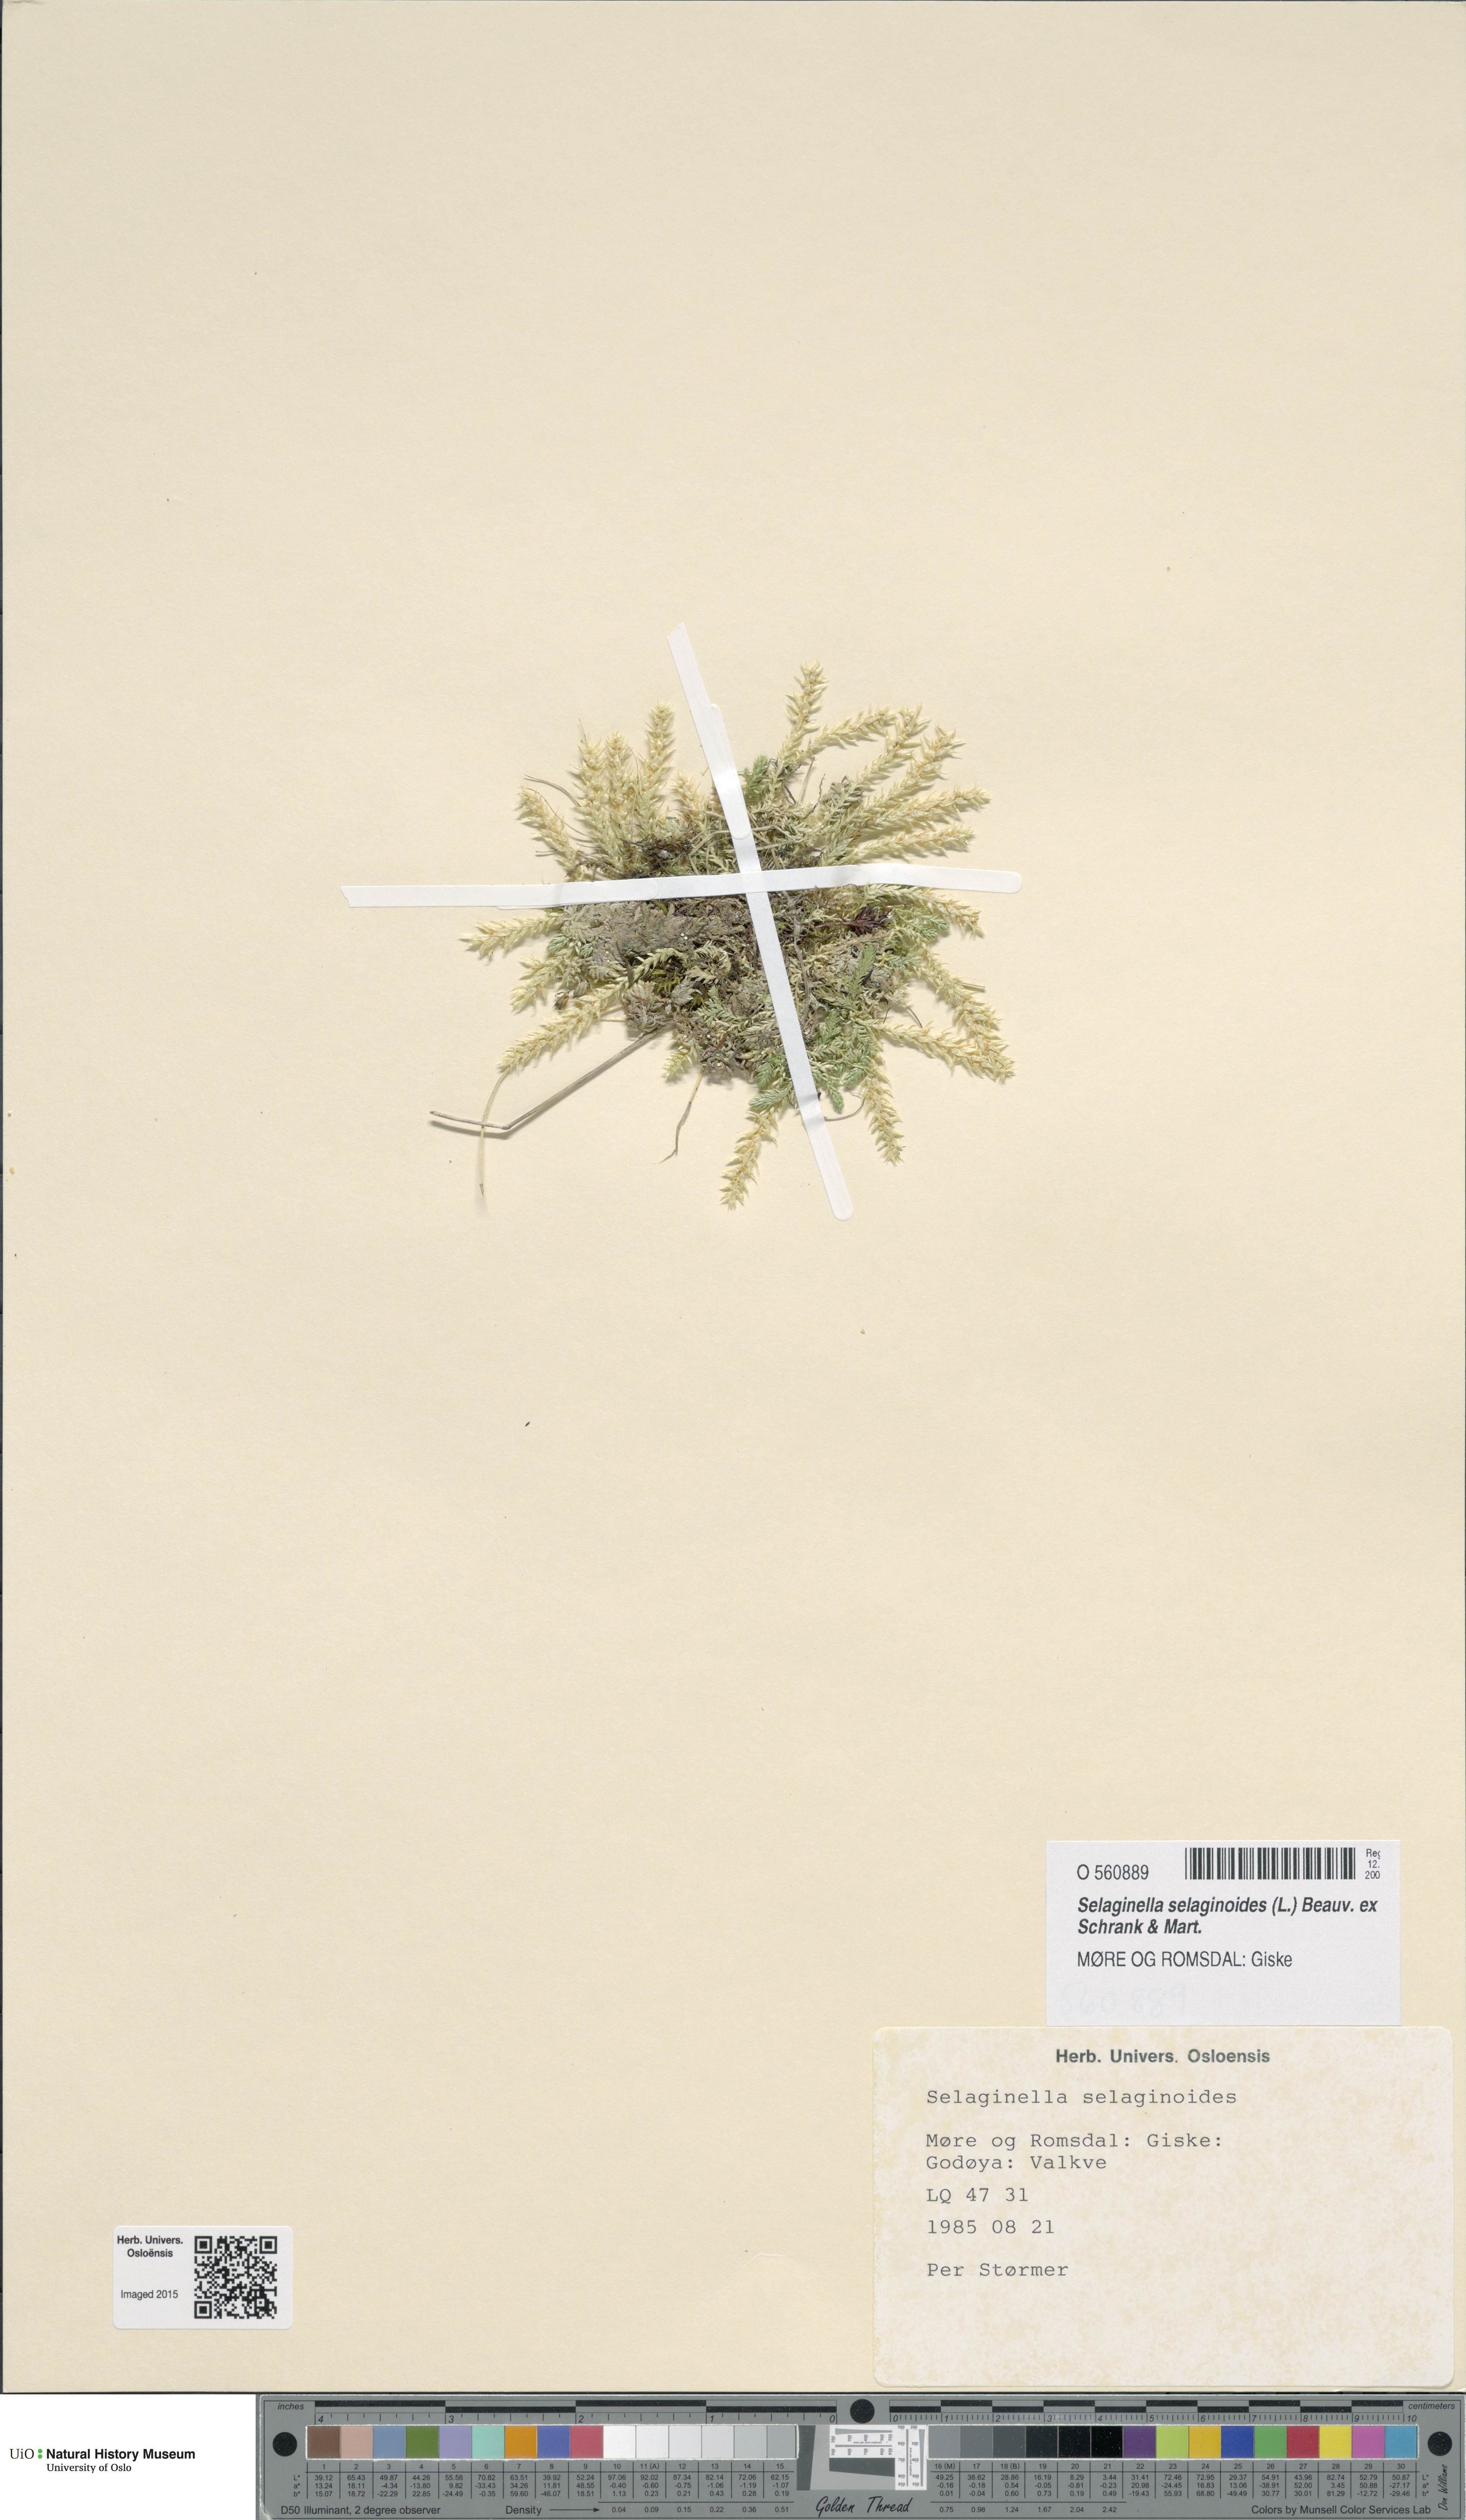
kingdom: Plantae
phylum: Tracheophyta
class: Lycopodiopsida
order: Selaginellales
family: Selaginellaceae
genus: Selaginella
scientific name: Selaginella selaginoides
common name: Prickly mountain-moss
